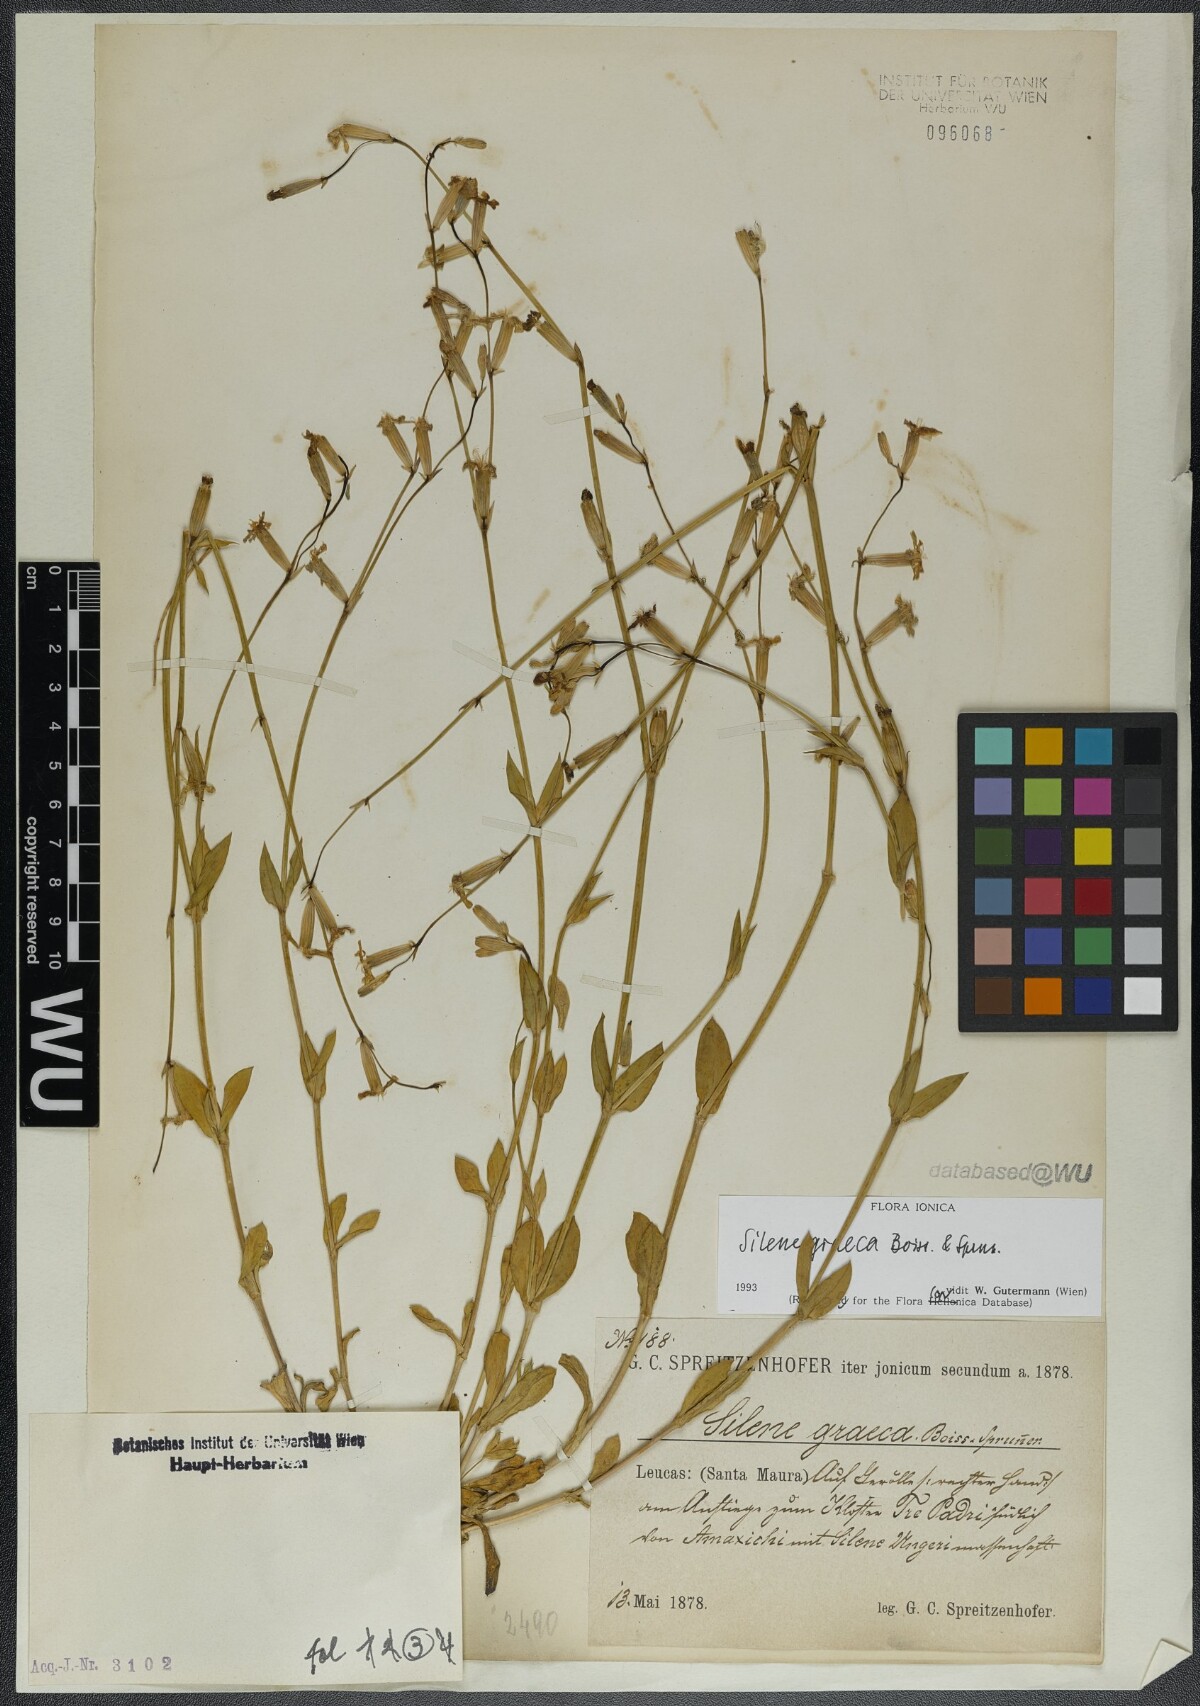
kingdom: Plantae
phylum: Tracheophyta
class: Magnoliopsida
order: Caryophyllales
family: Caryophyllaceae
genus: Silene
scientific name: Silene graeca
